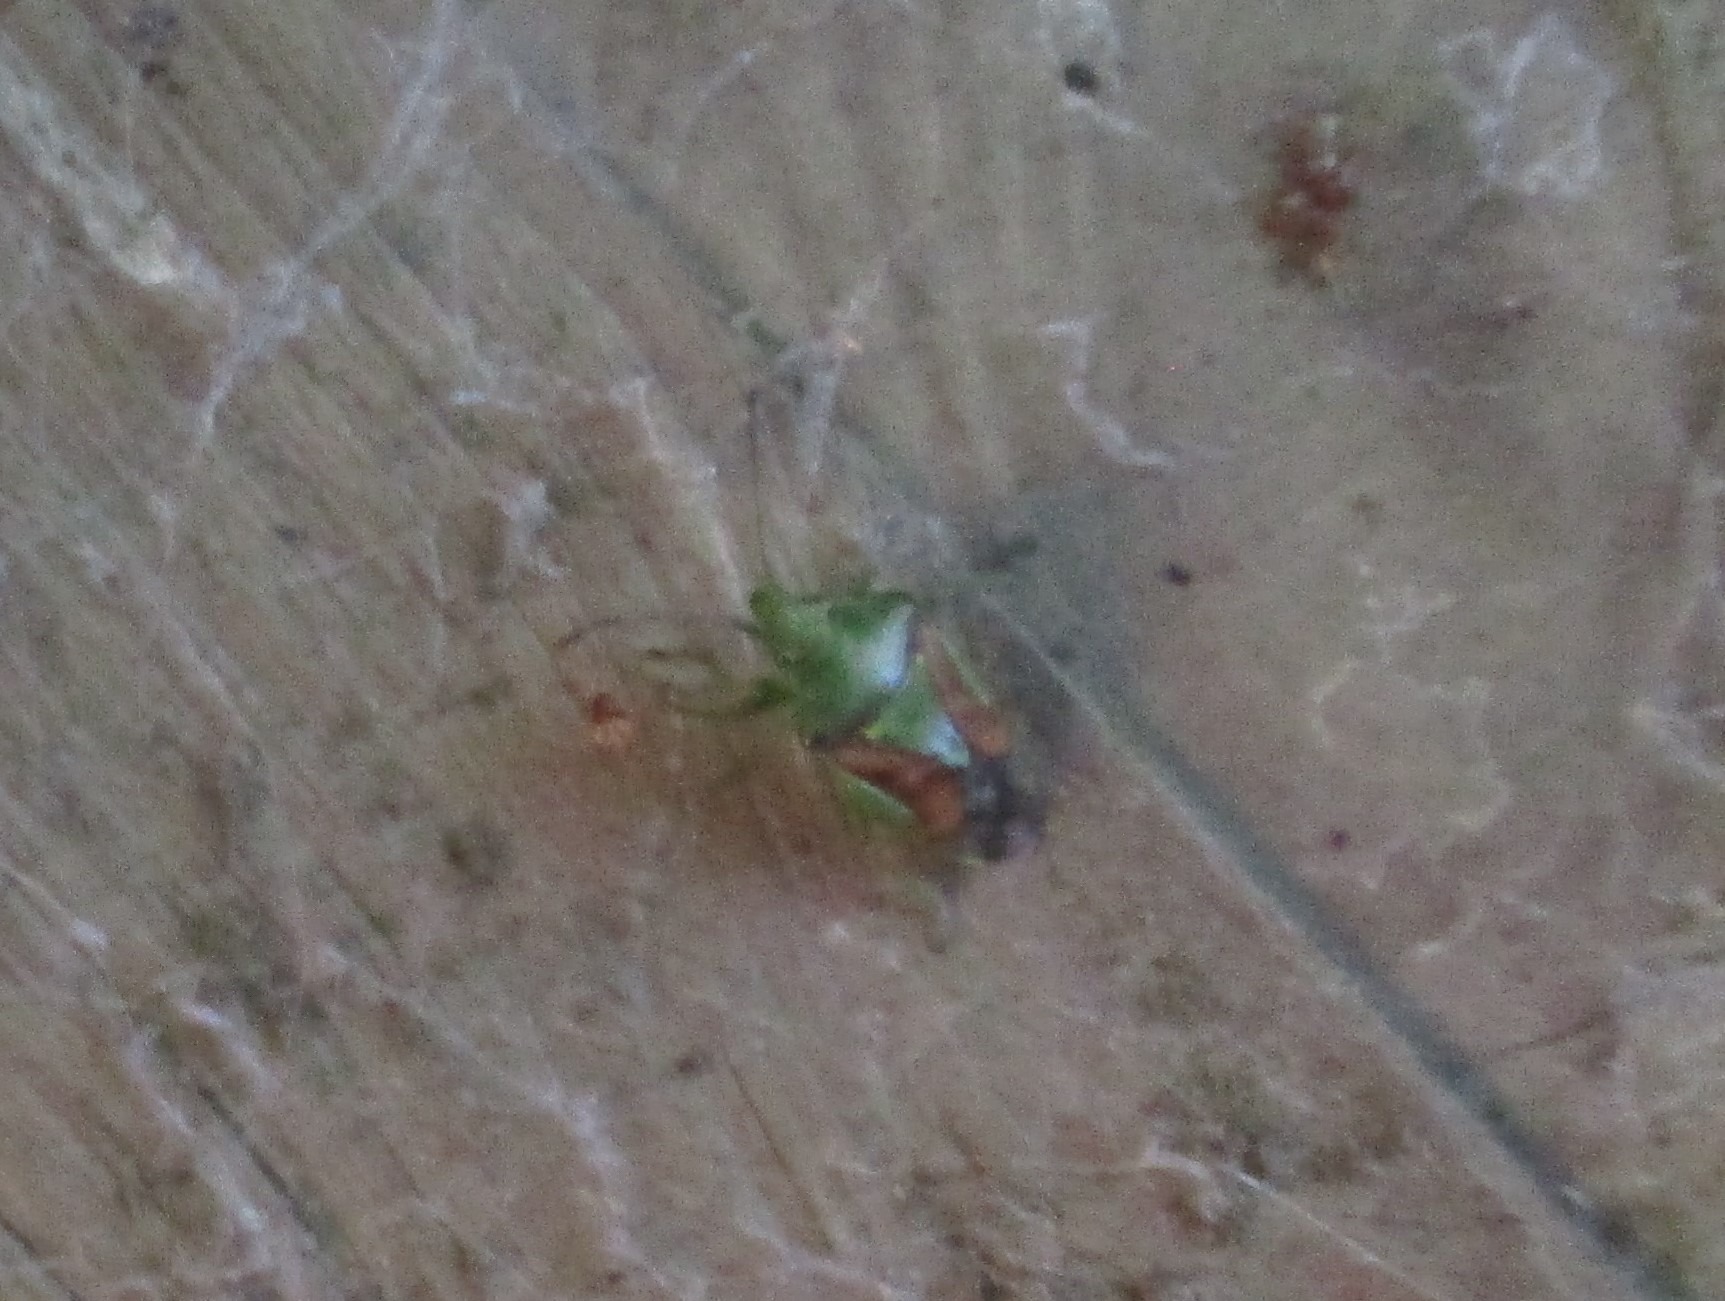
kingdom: Animalia
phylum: Arthropoda
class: Insecta
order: Hemiptera
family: Acanthosomatidae
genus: Cyphostethus
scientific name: Cyphostethus tristriatus
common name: Slank enebærtæge
